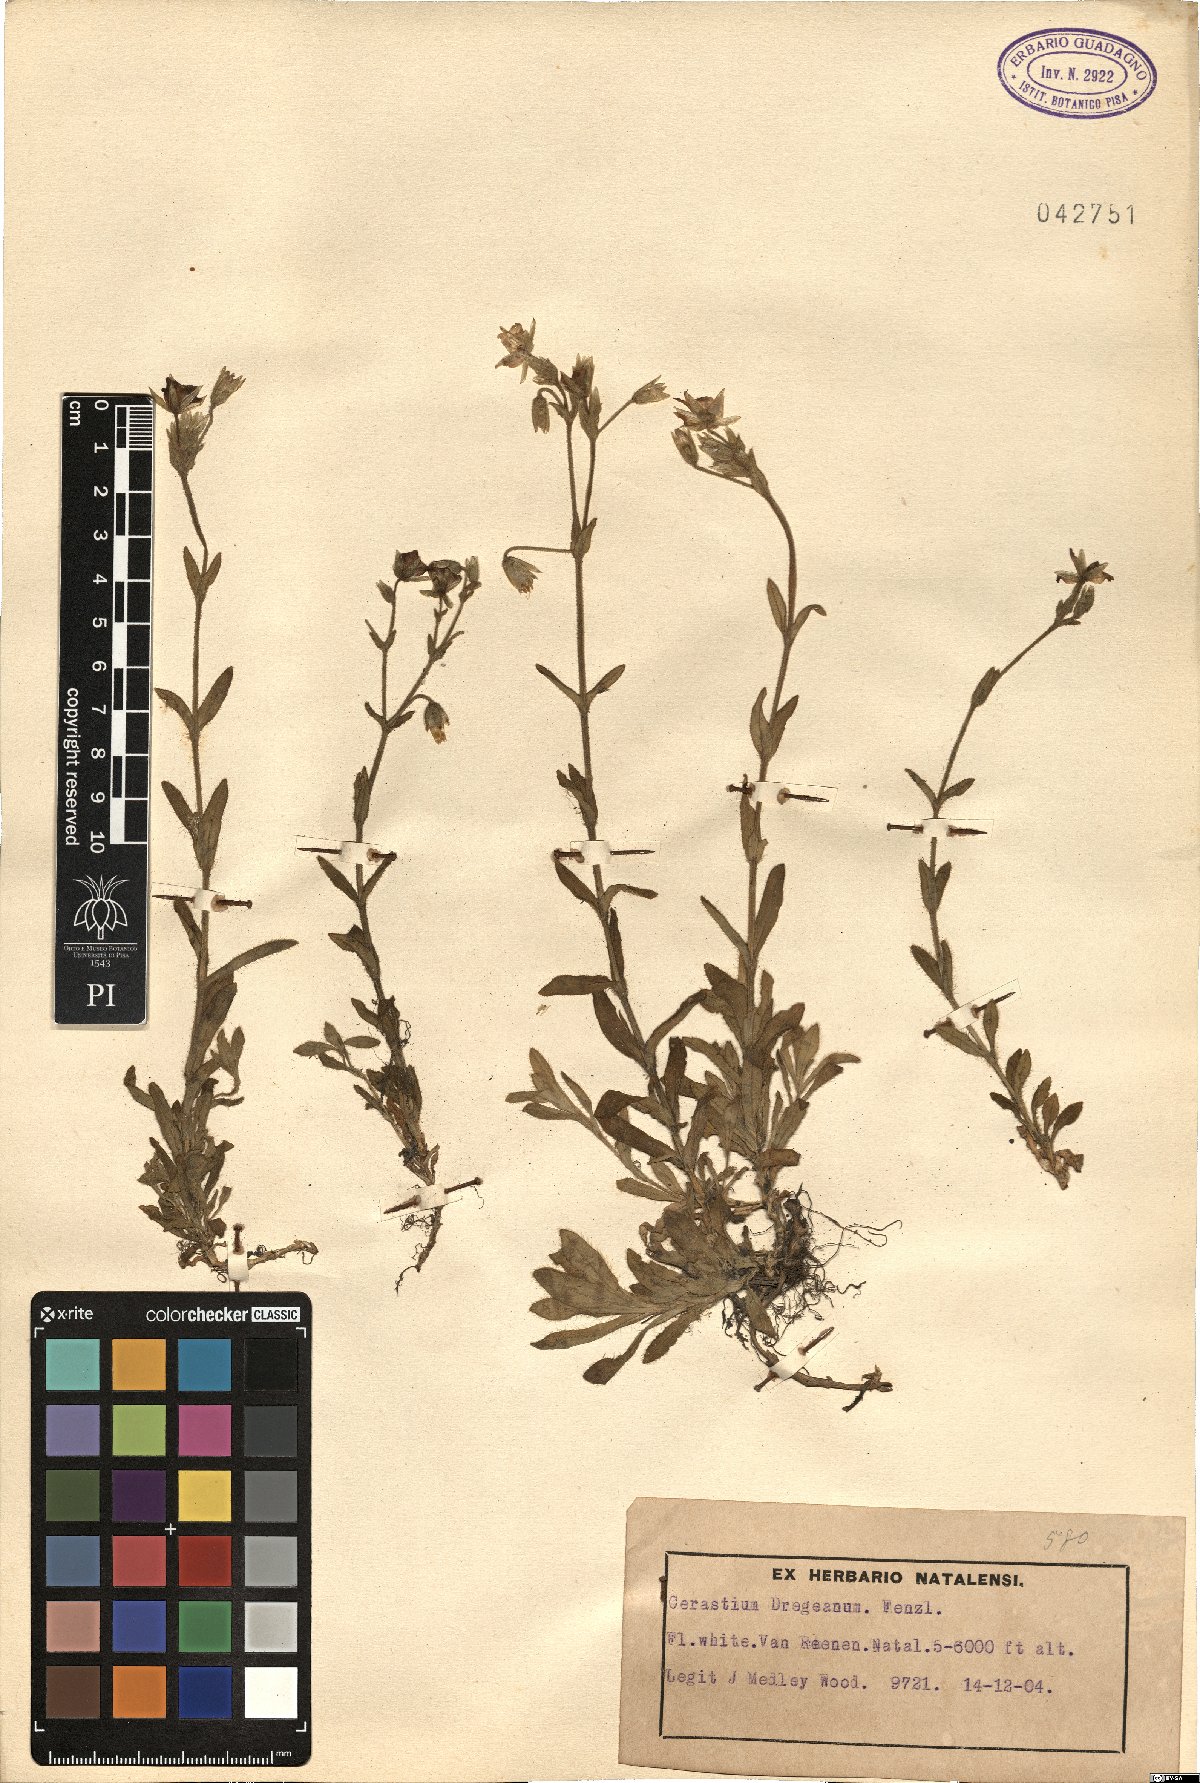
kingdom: Plantae
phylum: Tracheophyta
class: Magnoliopsida
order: Caryophyllales
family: Caryophyllaceae
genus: Cerastium
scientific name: Cerastium arabidis
